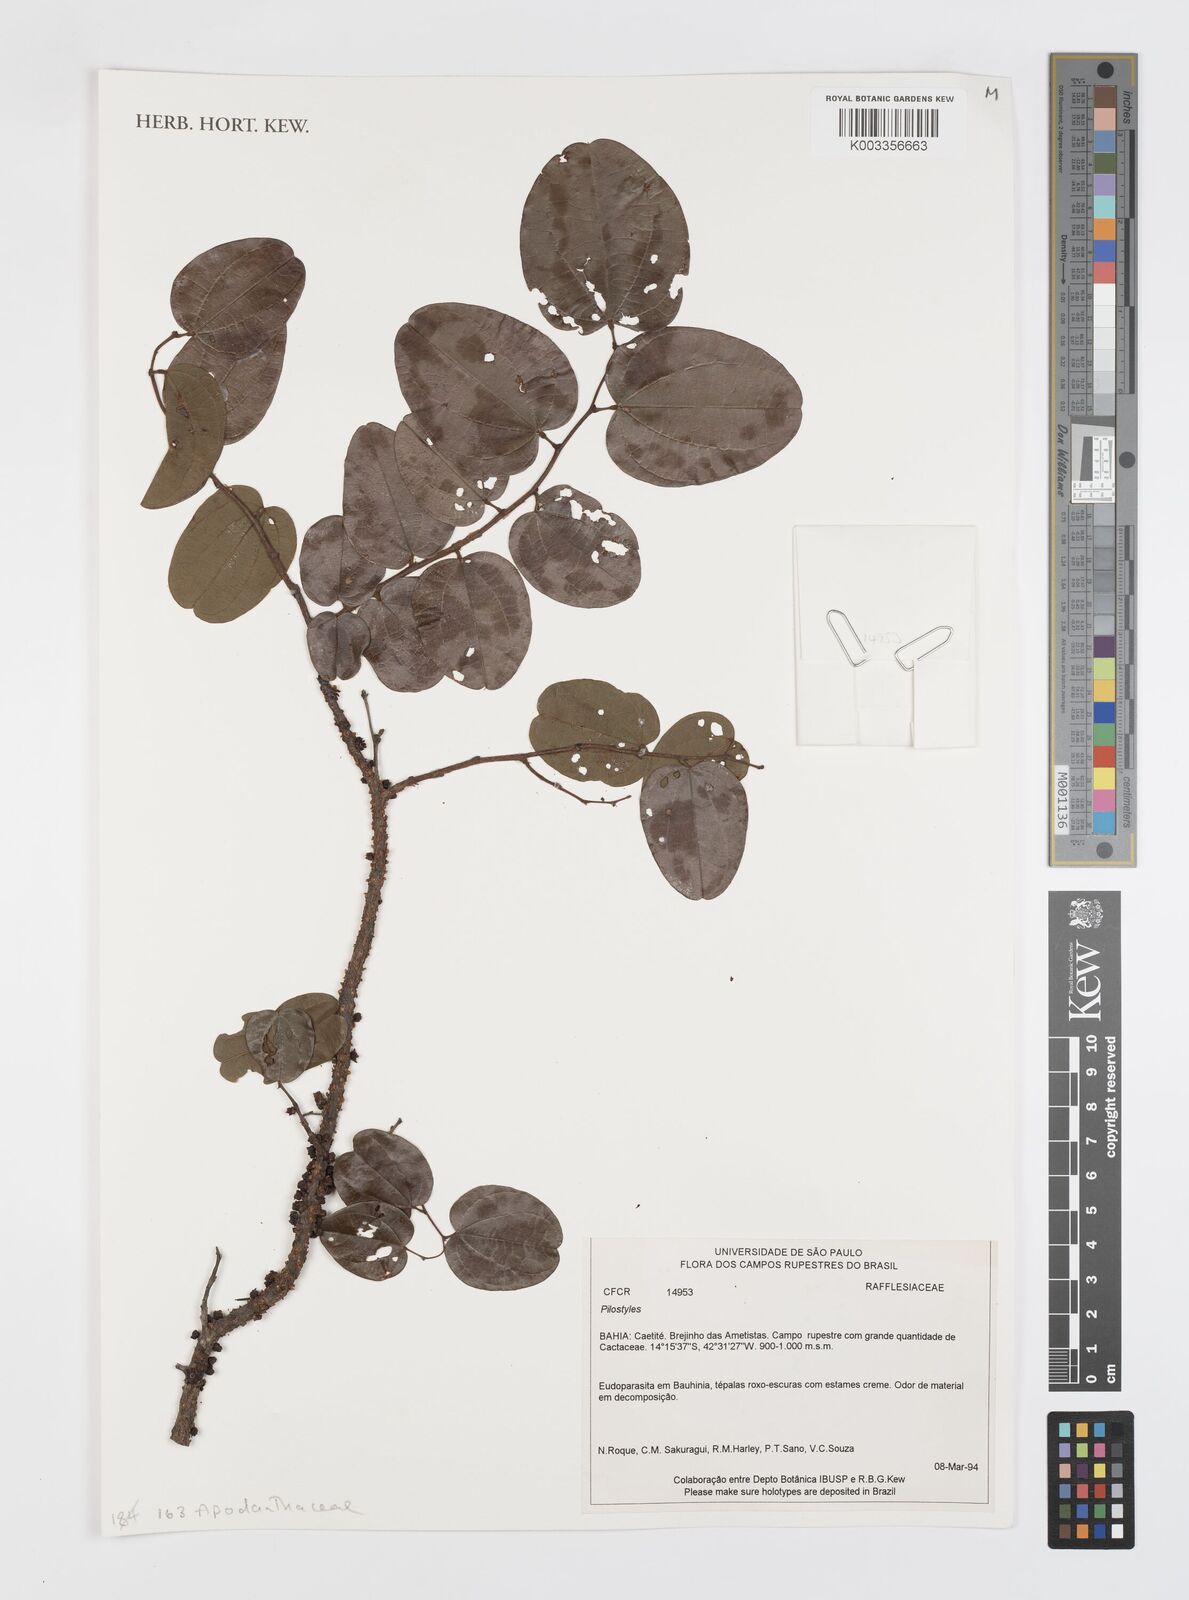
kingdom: Plantae
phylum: Tracheophyta
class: Magnoliopsida
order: Cucurbitales
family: Apodanthaceae
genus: Pilostyles
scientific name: Pilostyles
